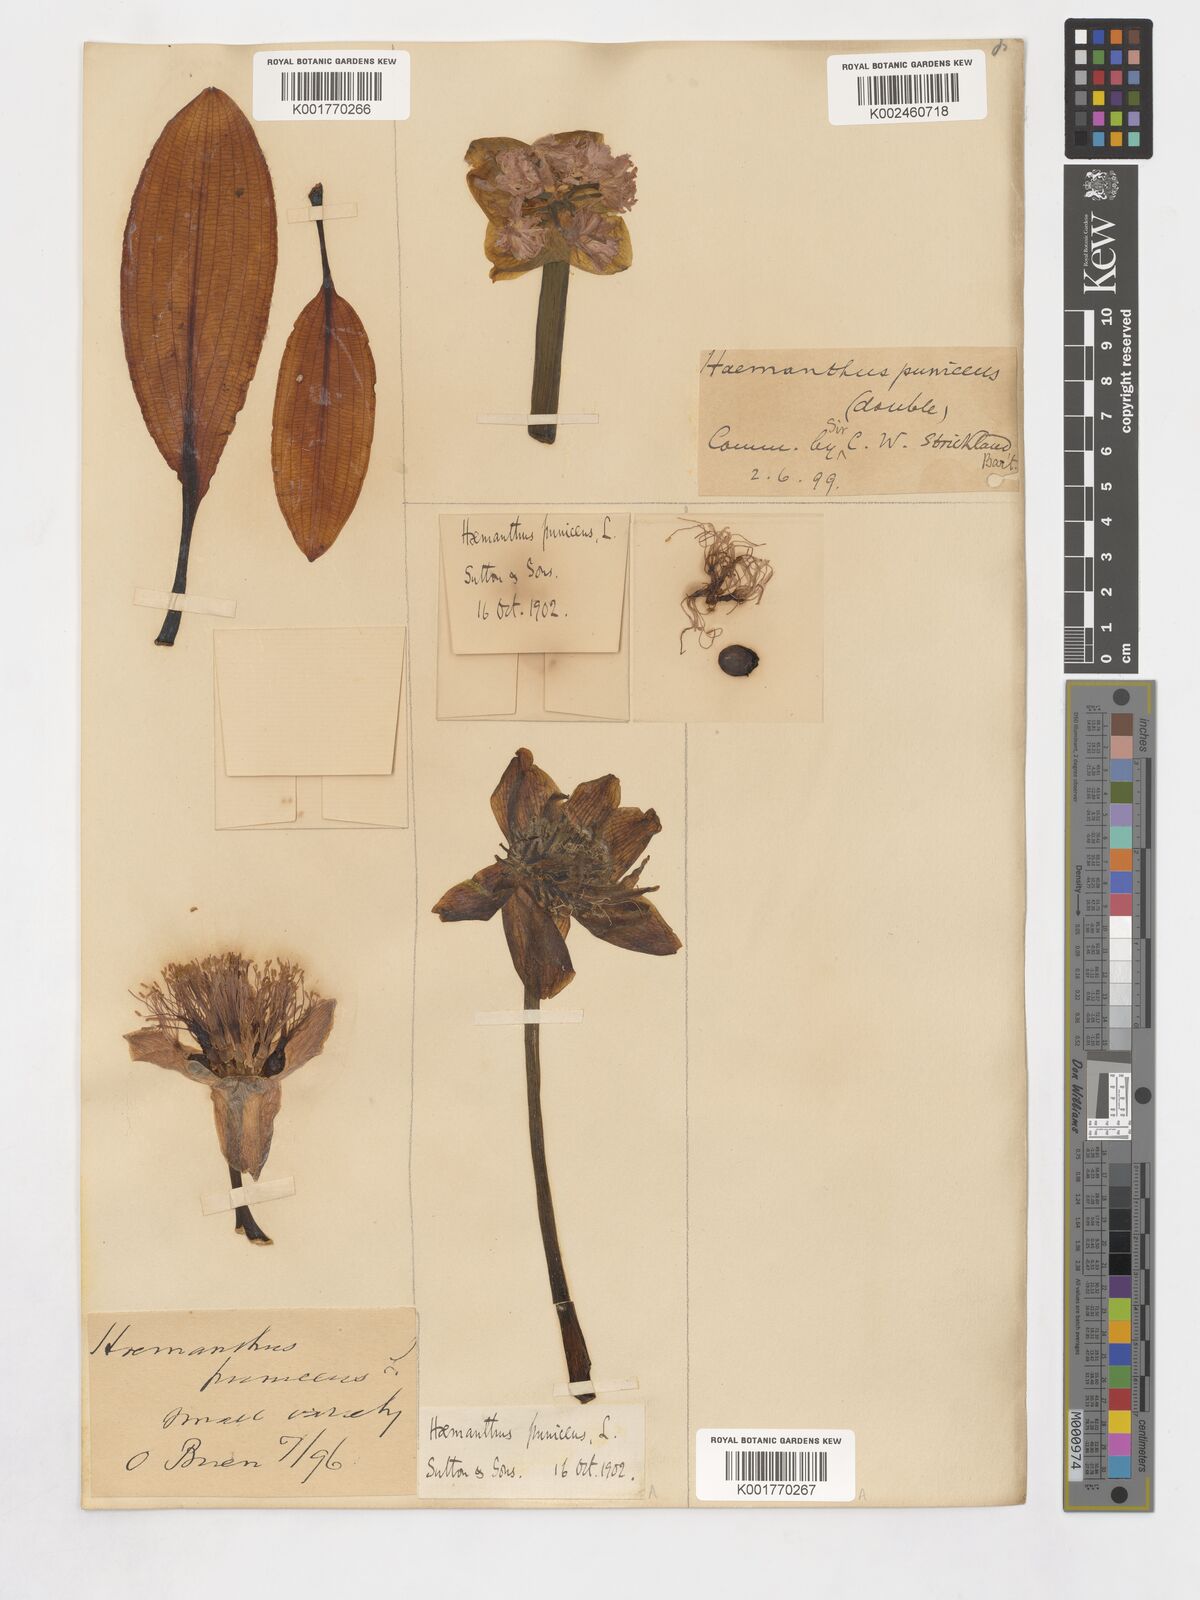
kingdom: Plantae
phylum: Tracheophyta
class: Liliopsida
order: Asparagales
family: Amaryllidaceae
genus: Scadoxus
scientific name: Scadoxus puniceus
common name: Royal-paintbrush
